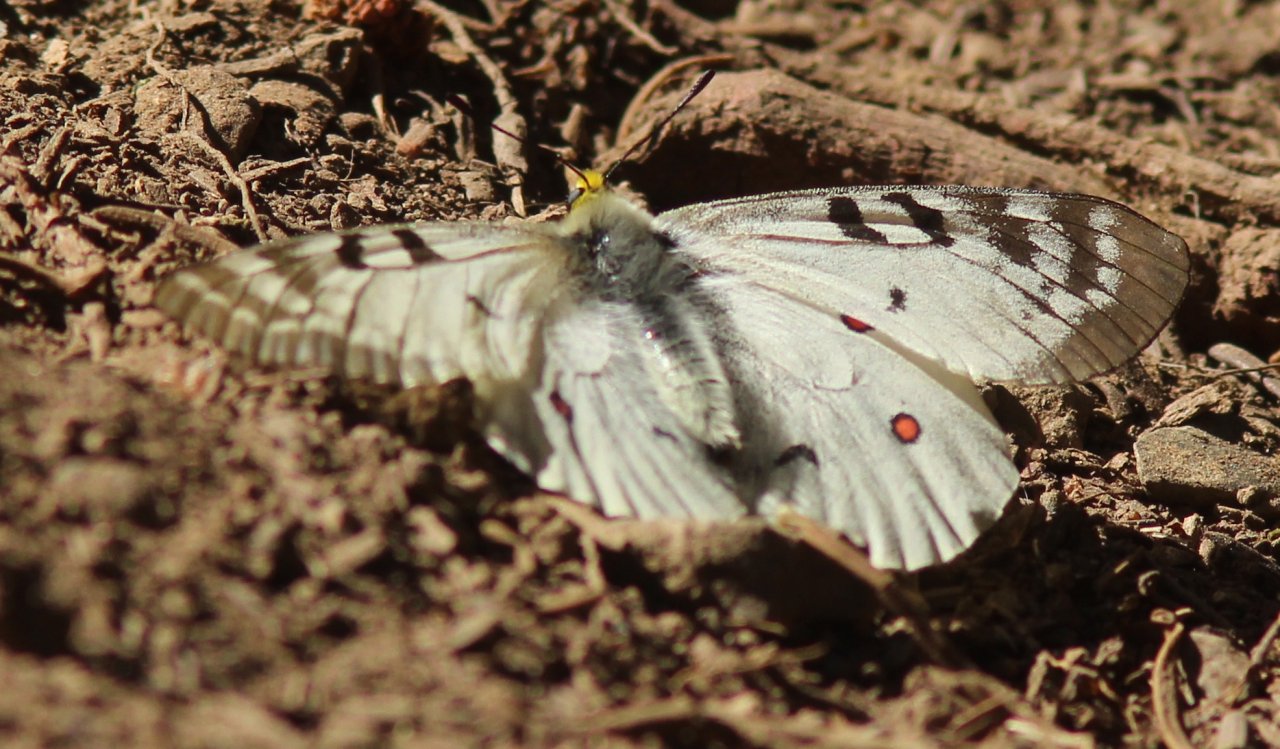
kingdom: Animalia
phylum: Arthropoda
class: Insecta
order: Lepidoptera
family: Papilionidae
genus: Parnassius
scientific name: Parnassius clodius
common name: Clodius Parnassian
